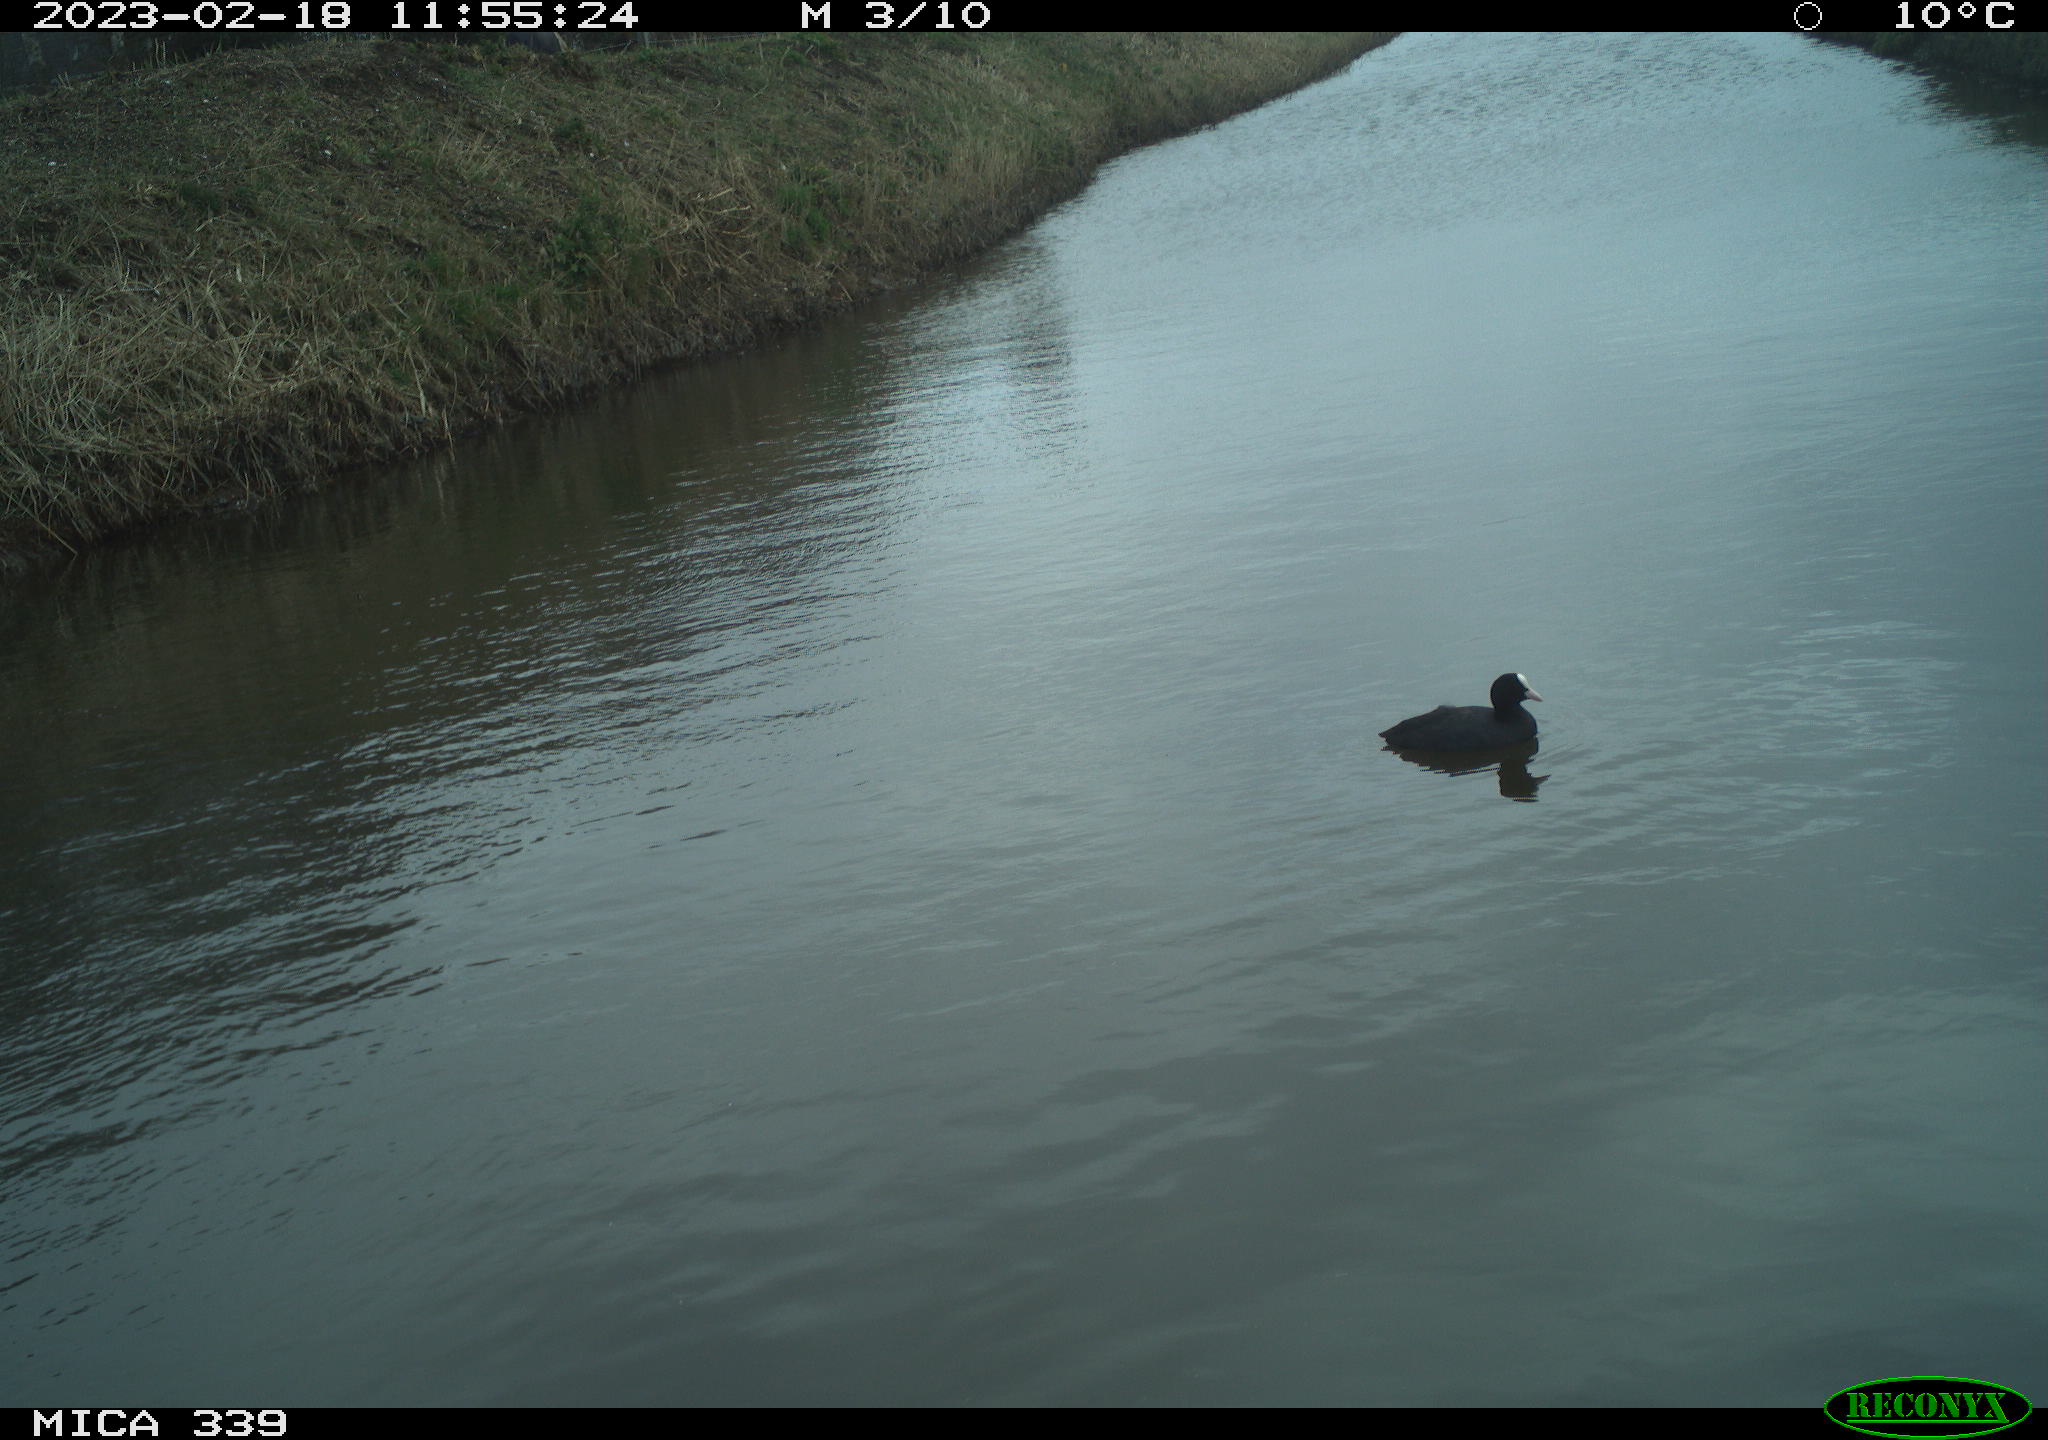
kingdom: Animalia
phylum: Chordata
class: Aves
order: Gruiformes
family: Rallidae
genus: Fulica
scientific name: Fulica atra
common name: Eurasian coot
